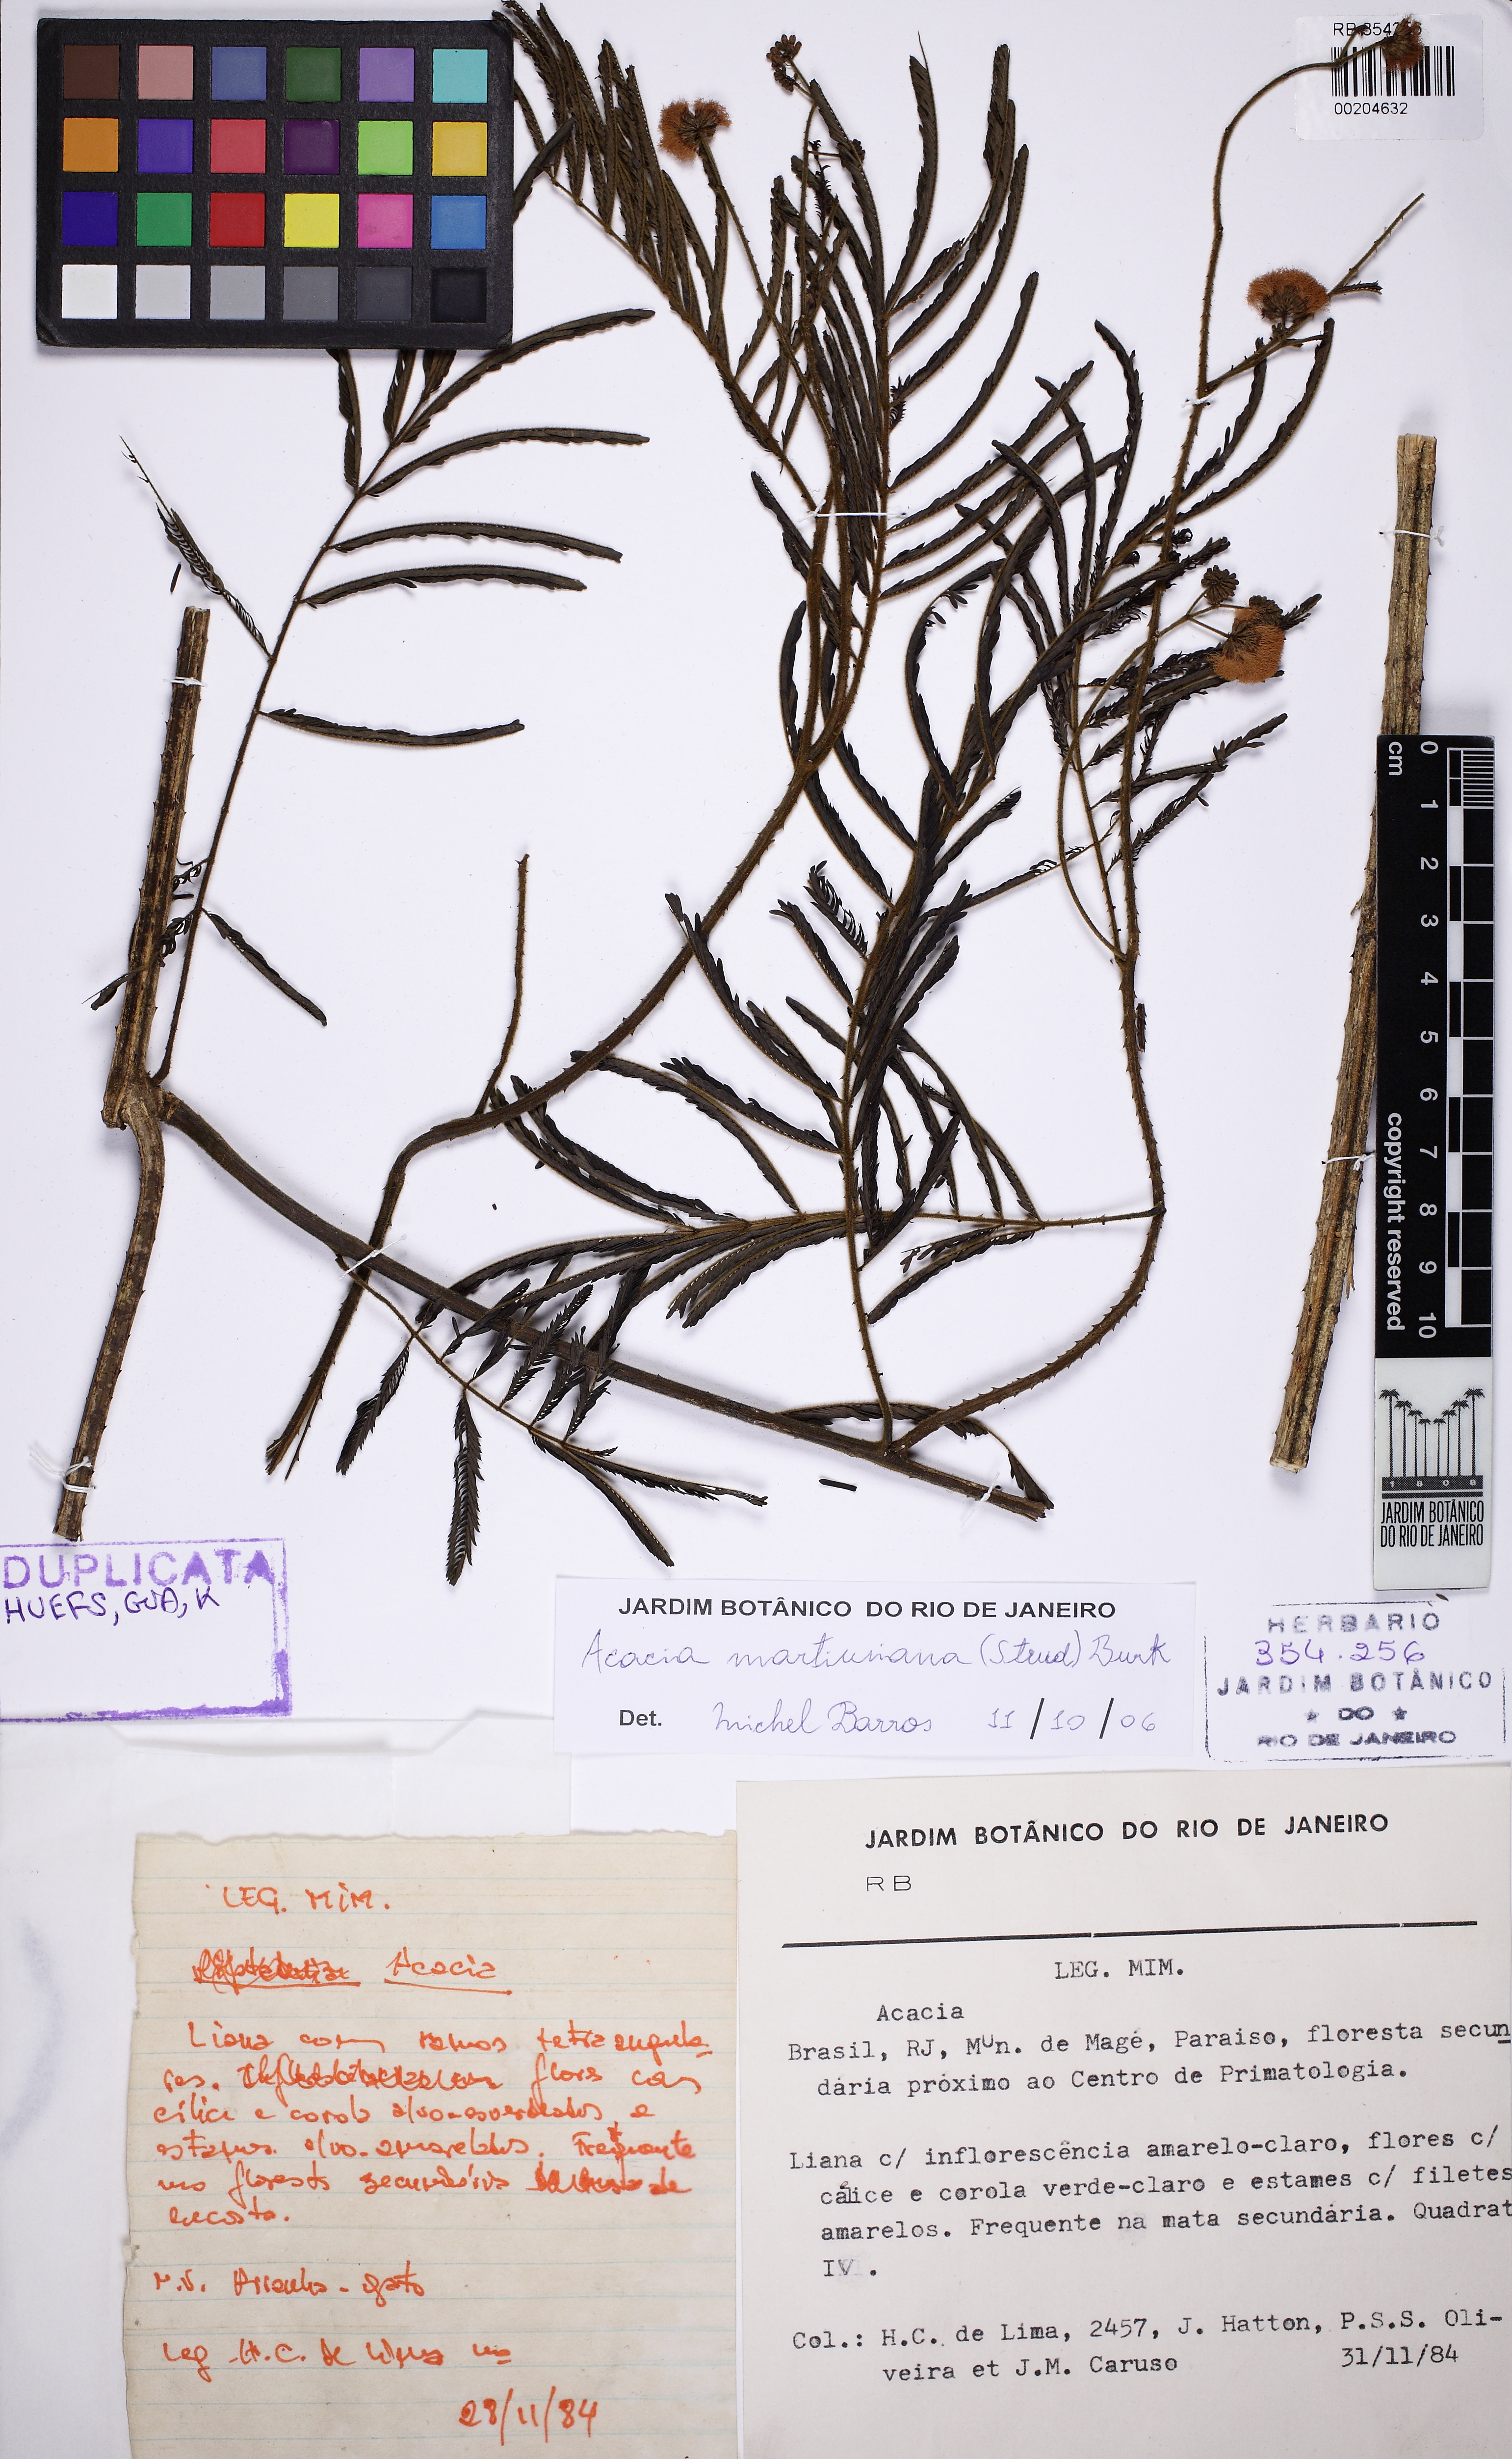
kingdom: Plantae
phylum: Tracheophyta
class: Magnoliopsida
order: Fabales
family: Fabaceae
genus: Senegalia
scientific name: Senegalia martiusiana
